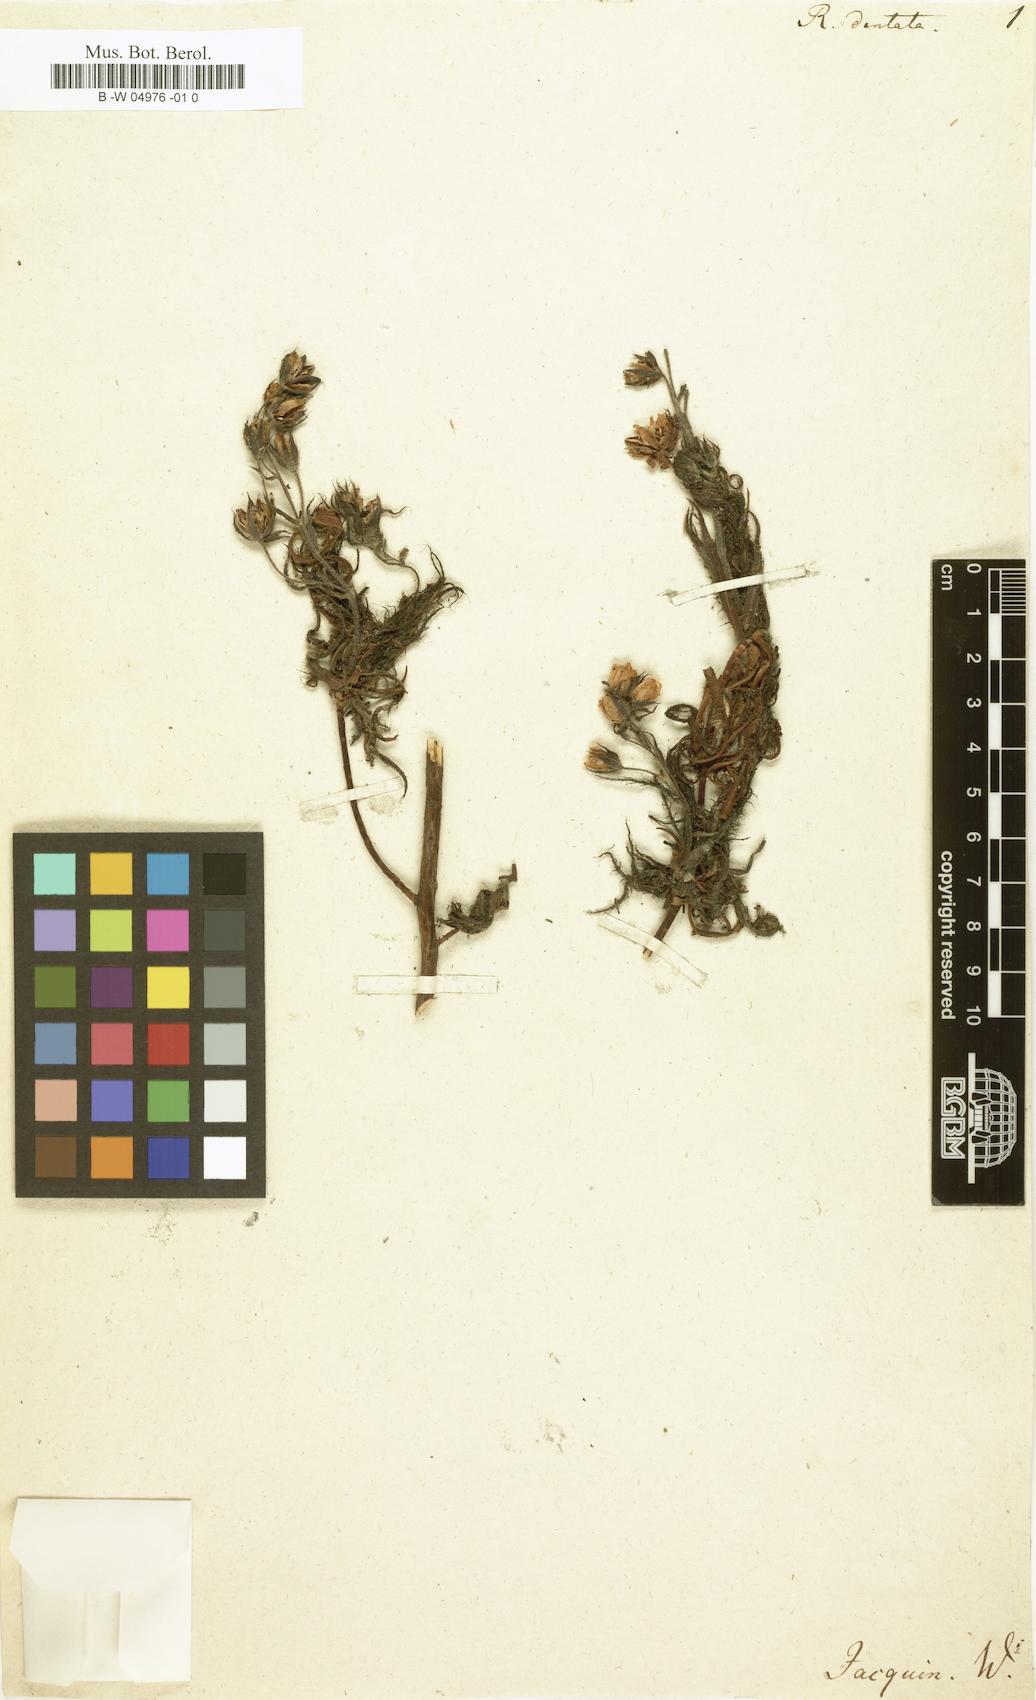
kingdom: Plantae
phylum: Tracheophyta
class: Magnoliopsida
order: Ericales
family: Roridulaceae
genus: Roridula
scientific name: Roridula dentata
